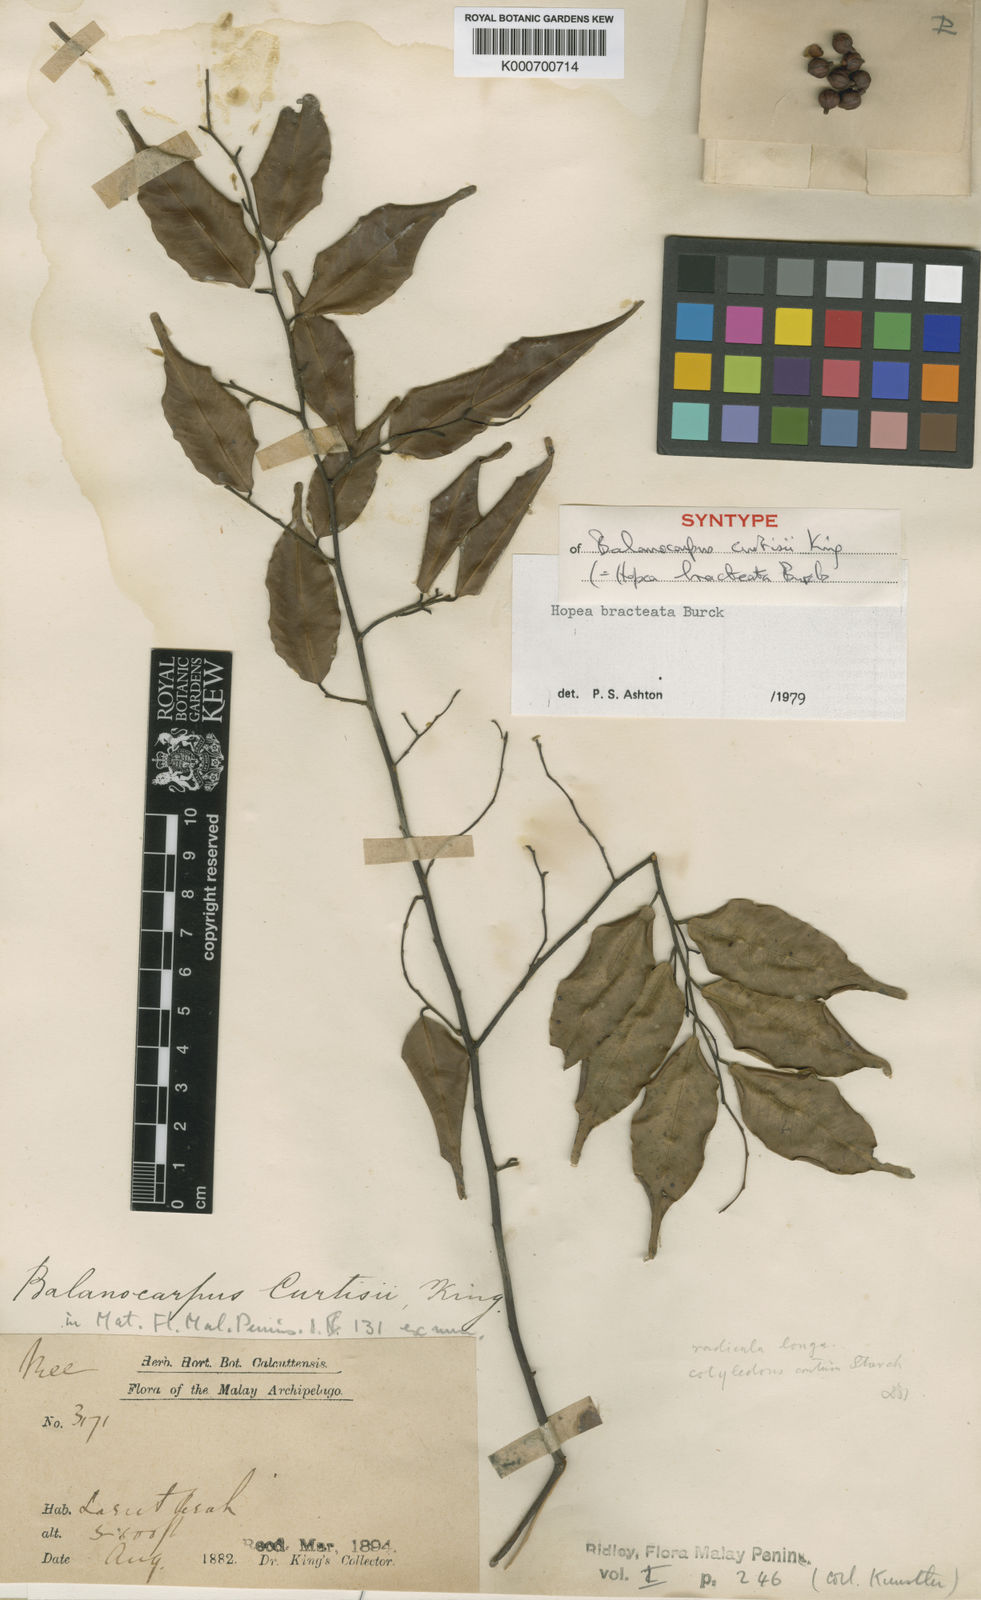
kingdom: Plantae
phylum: Tracheophyta
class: Magnoliopsida
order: Malvales
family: Dipterocarpaceae
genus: Hopea
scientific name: Hopea bracteata
